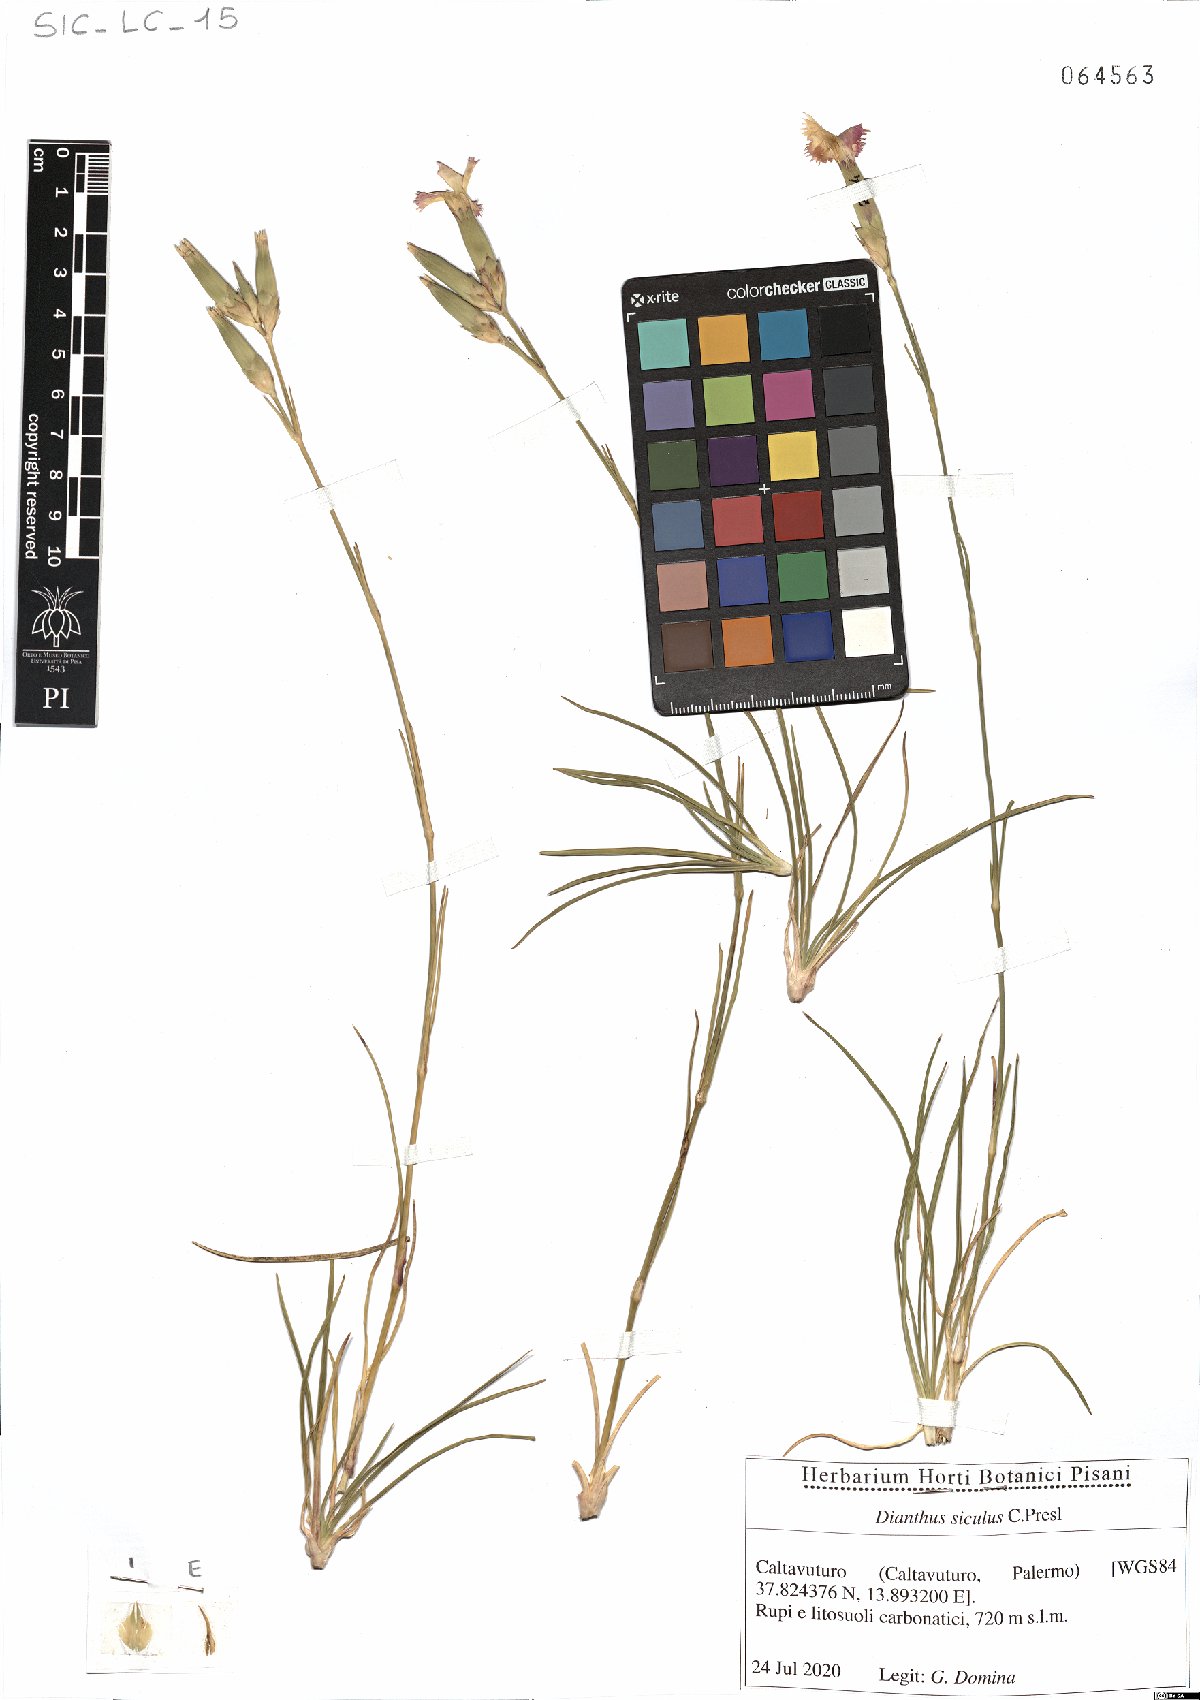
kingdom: Plantae
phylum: Tracheophyta
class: Magnoliopsida
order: Caryophyllales
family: Caryophyllaceae
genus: Dianthus
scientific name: Dianthus siculus
